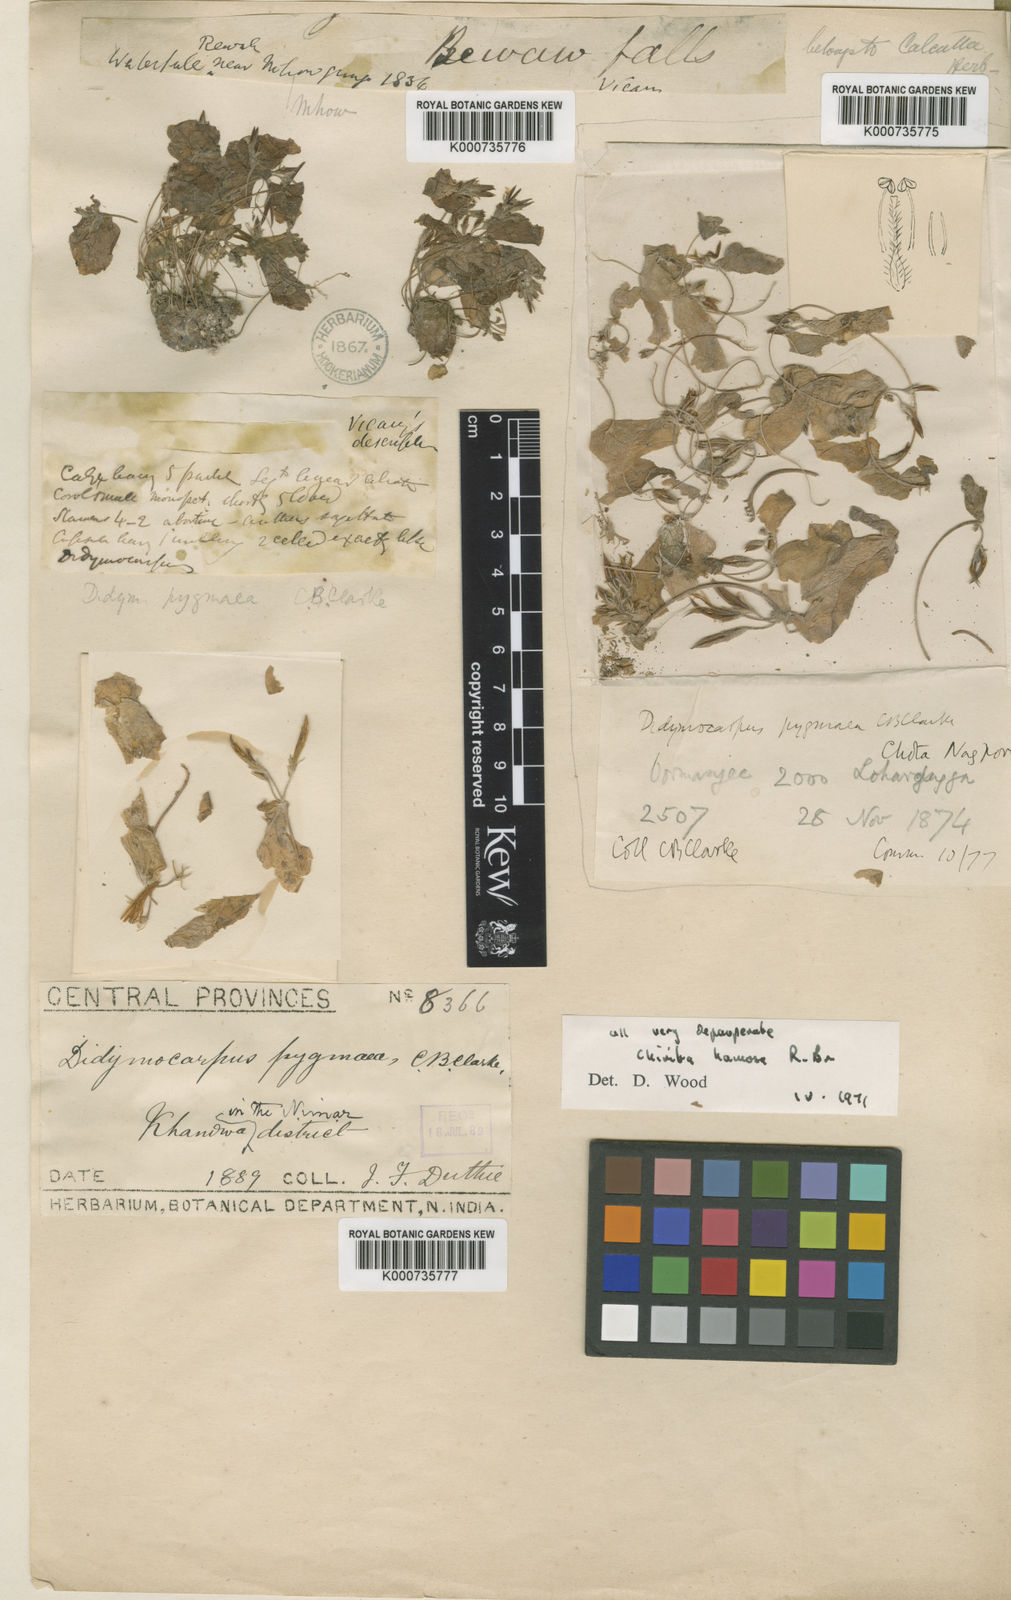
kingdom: Plantae
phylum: Tracheophyta
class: Magnoliopsida
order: Lamiales
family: Gesneriaceae
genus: Microchirita
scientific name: Microchirita hamosa
